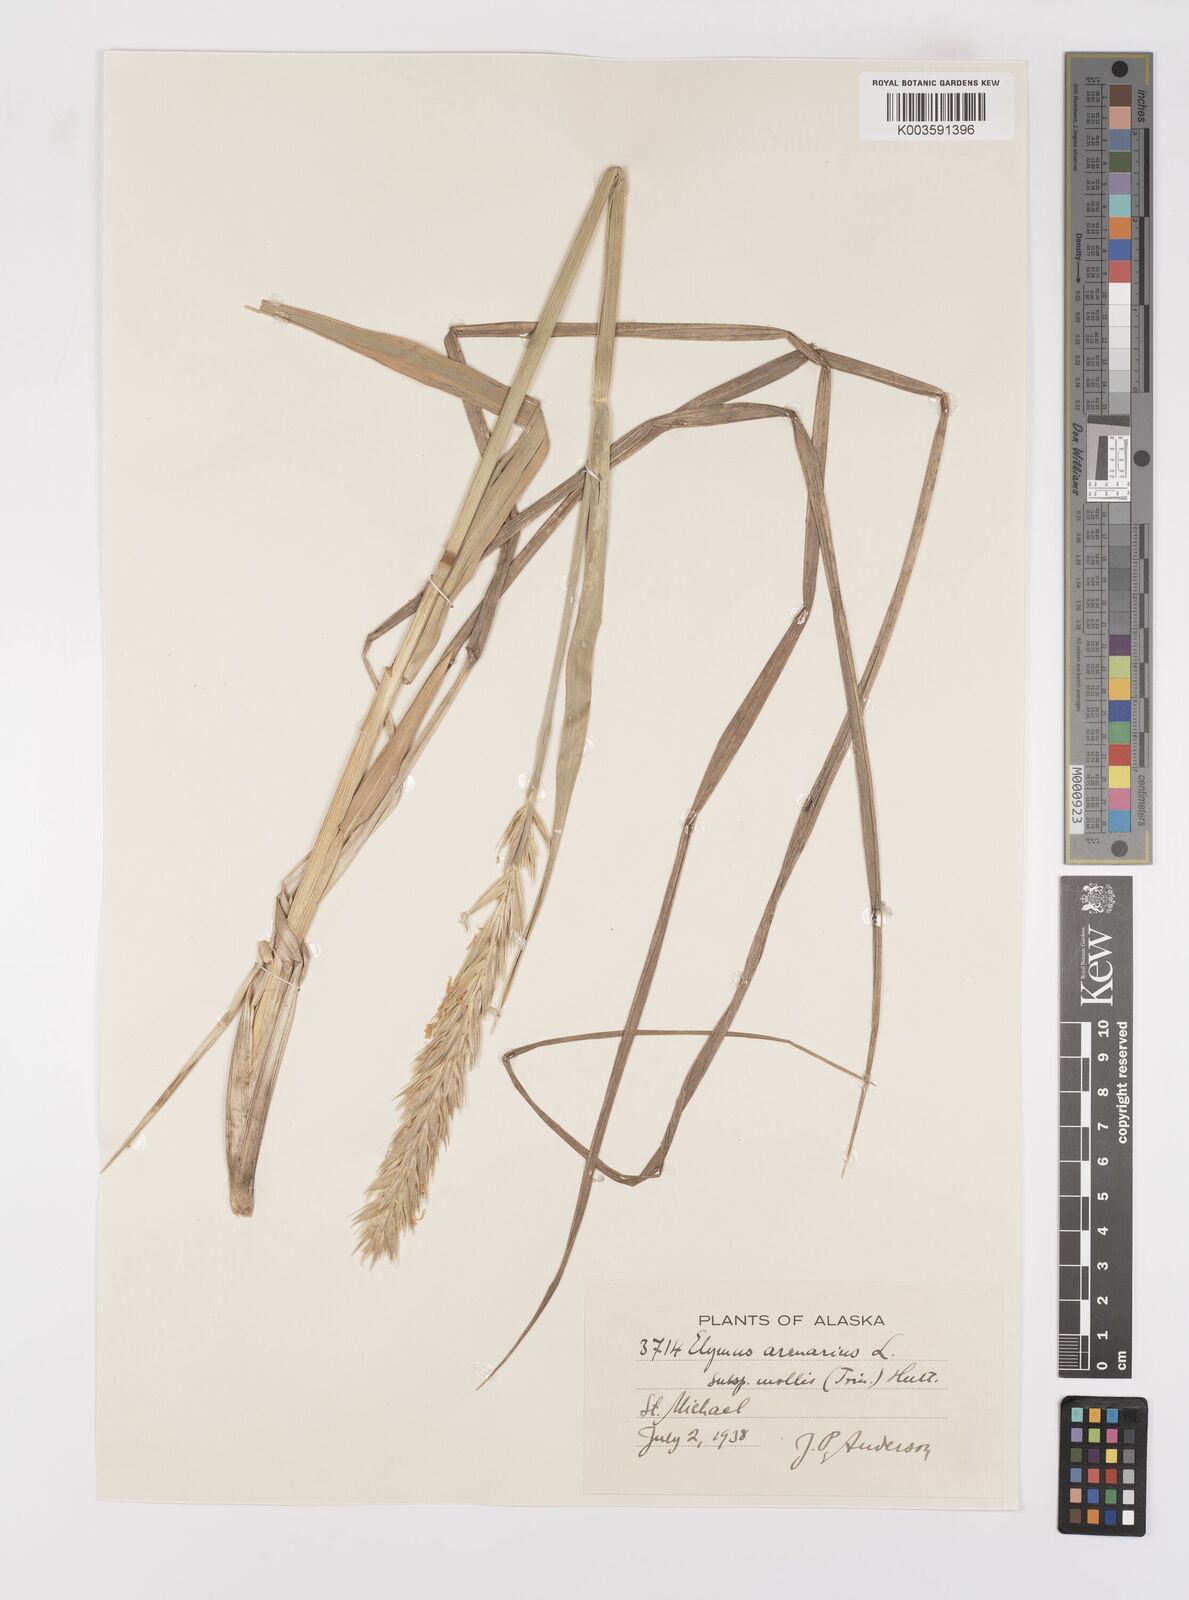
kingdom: Plantae
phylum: Tracheophyta
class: Liliopsida
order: Poales
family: Poaceae
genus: Leymus
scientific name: Leymus mollis
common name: American dune grass
